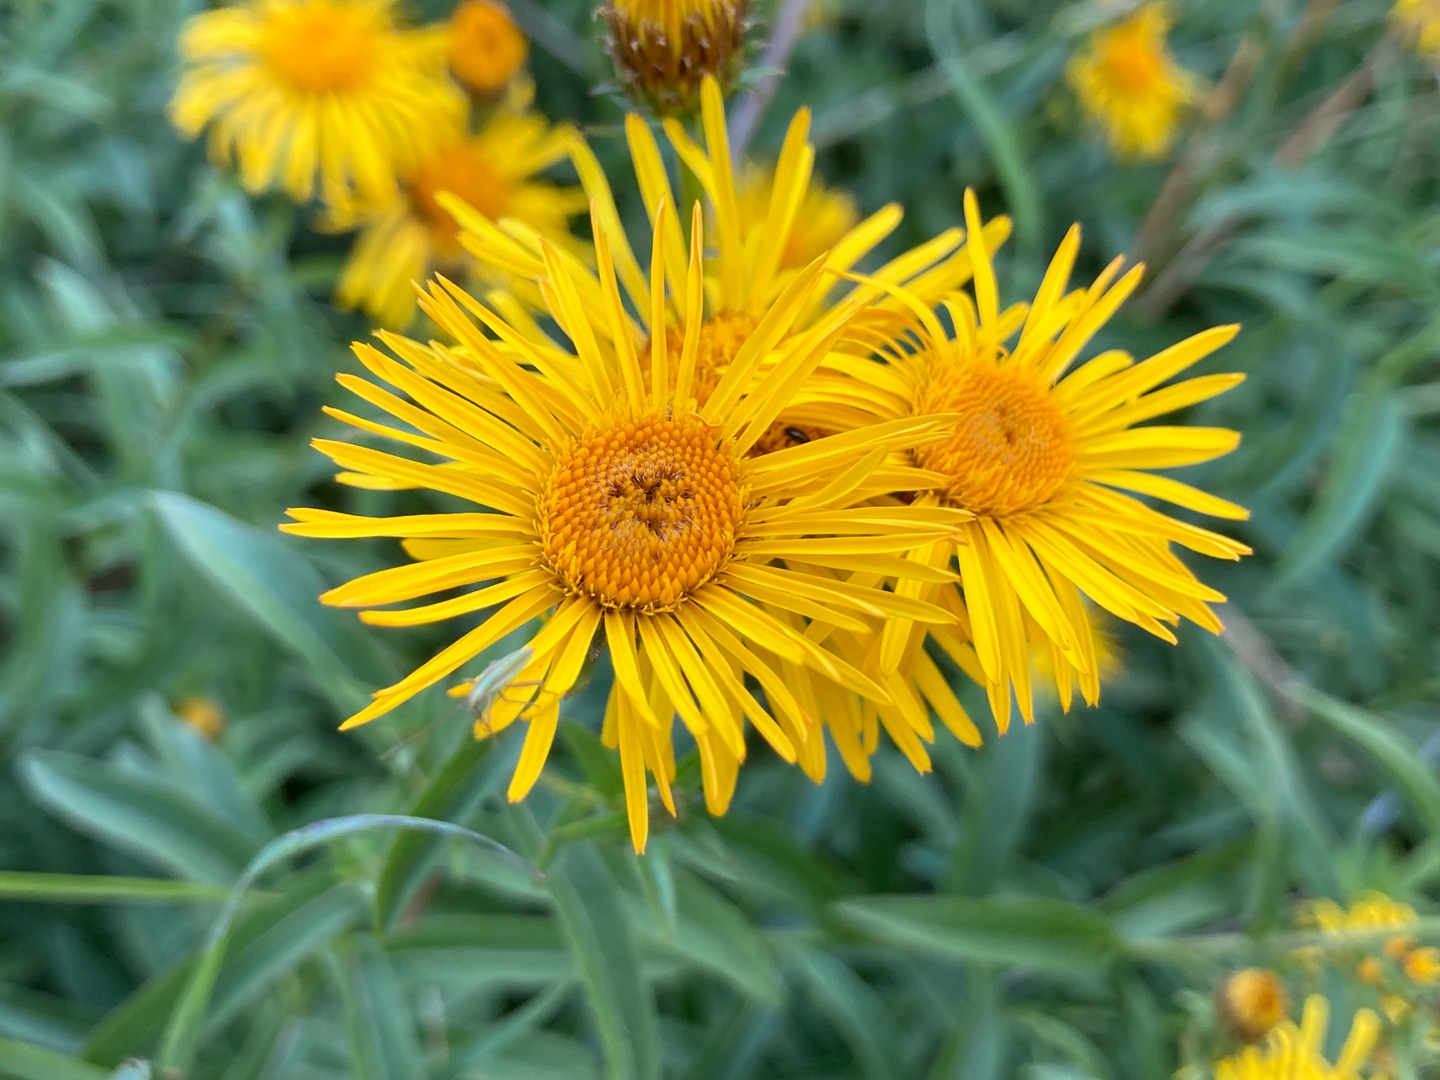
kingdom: Plantae
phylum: Tracheophyta
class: Magnoliopsida
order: Asterales
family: Asteraceae
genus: Pentanema
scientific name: Pentanema salicinum
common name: Pile-alant
